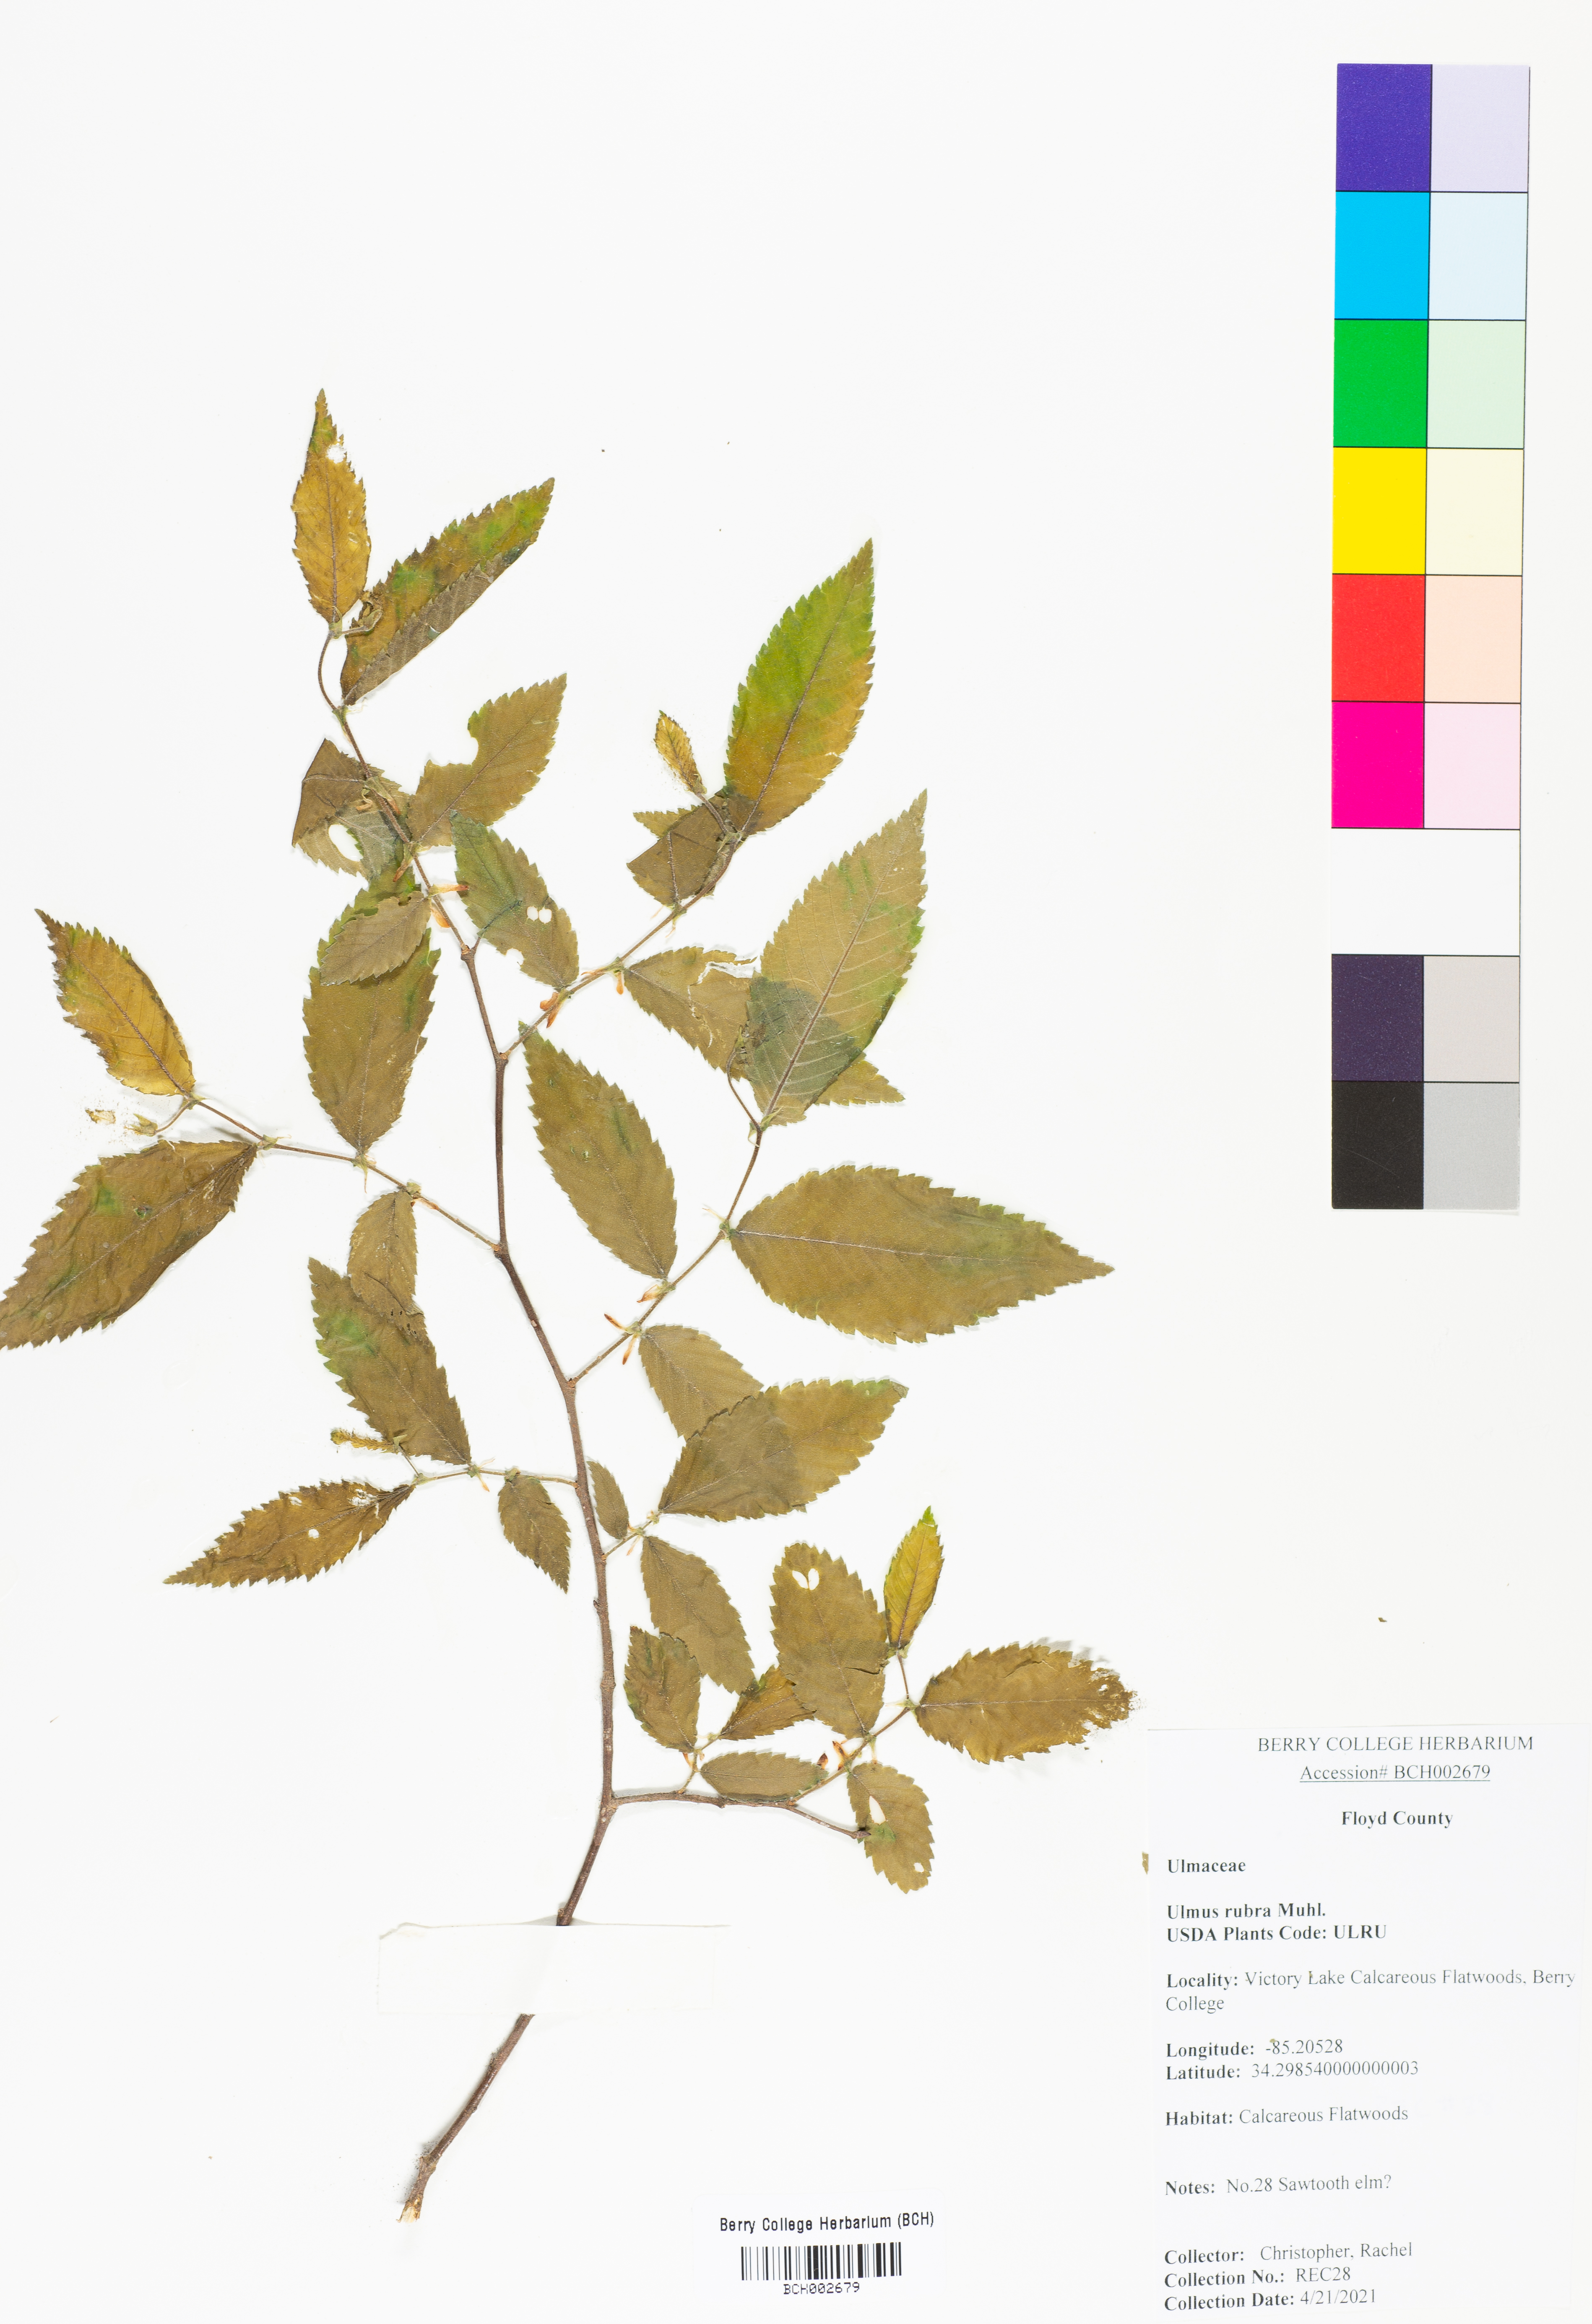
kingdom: Plantae
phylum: Tracheophyta
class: Magnoliopsida
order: Rosales
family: Ulmaceae
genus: Ulmus
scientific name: Ulmus rubra
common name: Slippery elm
